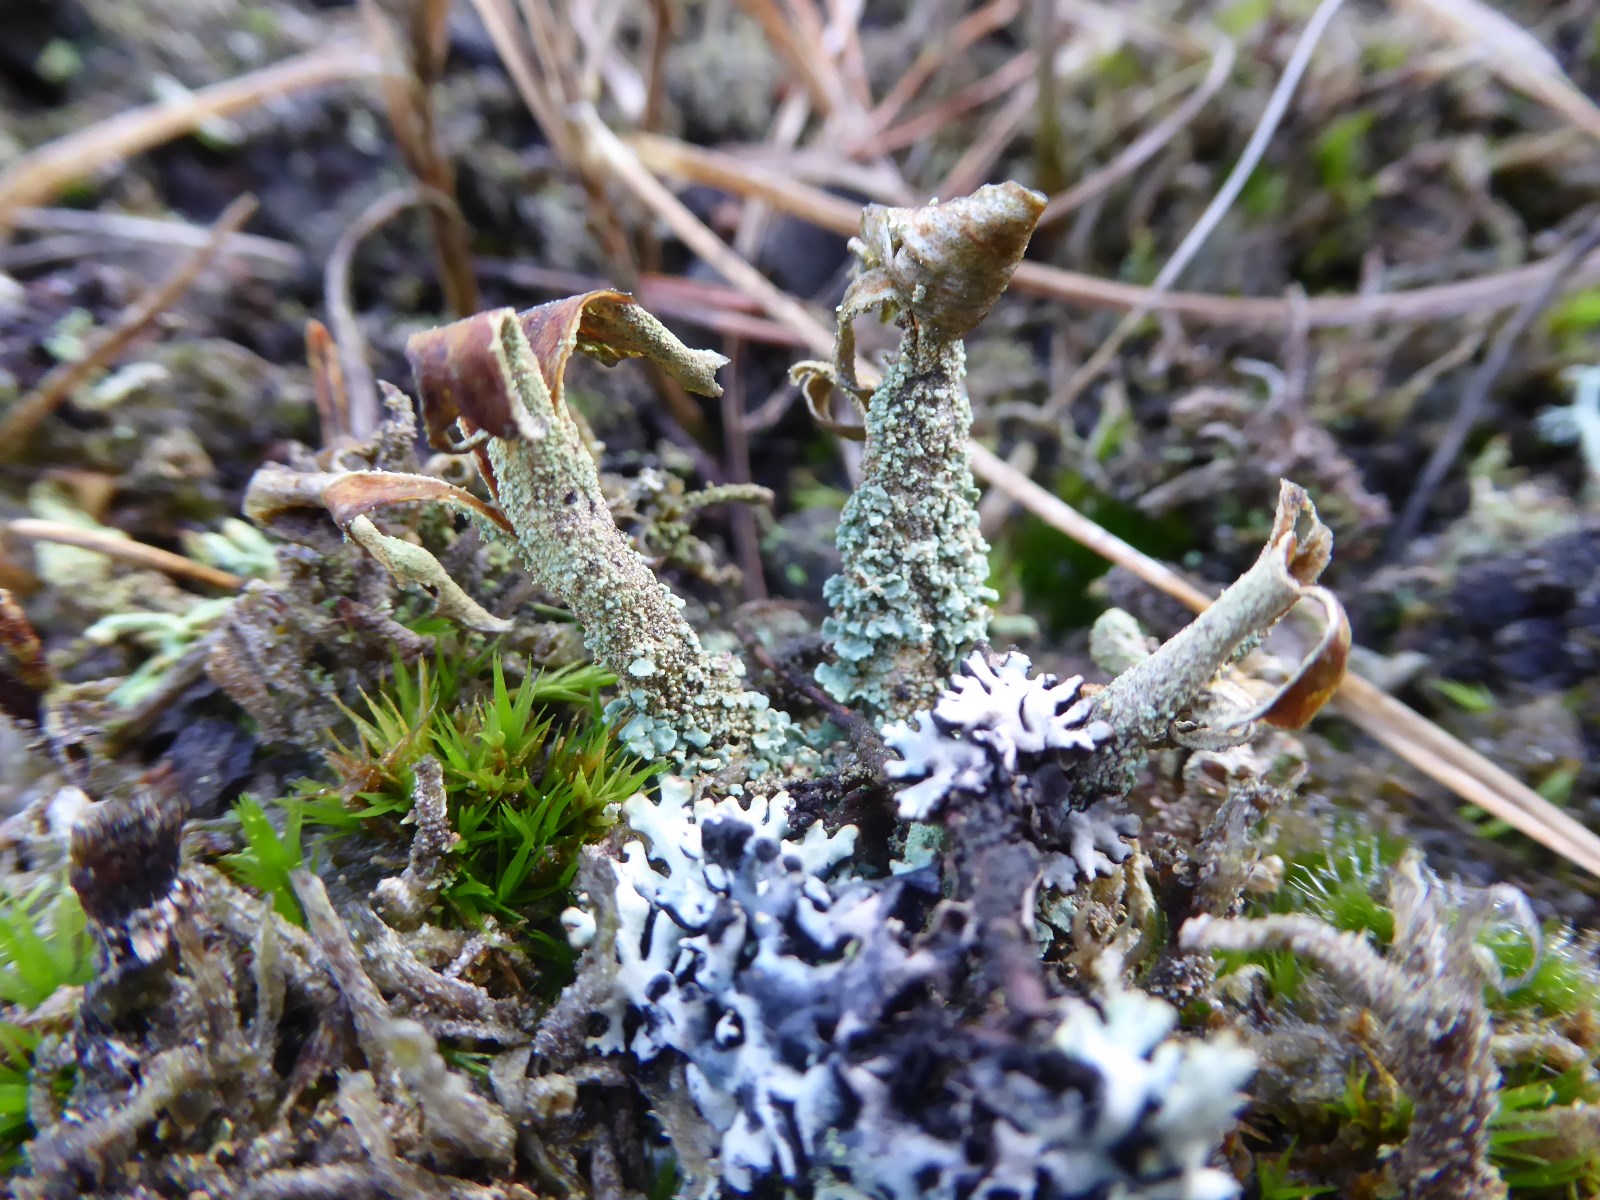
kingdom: Fungi
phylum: Ascomycota
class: Lecanoromycetes
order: Lecanorales
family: Cladoniaceae
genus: Cladonia
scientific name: Cladonia sulphurina
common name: opblæst bægerlav
